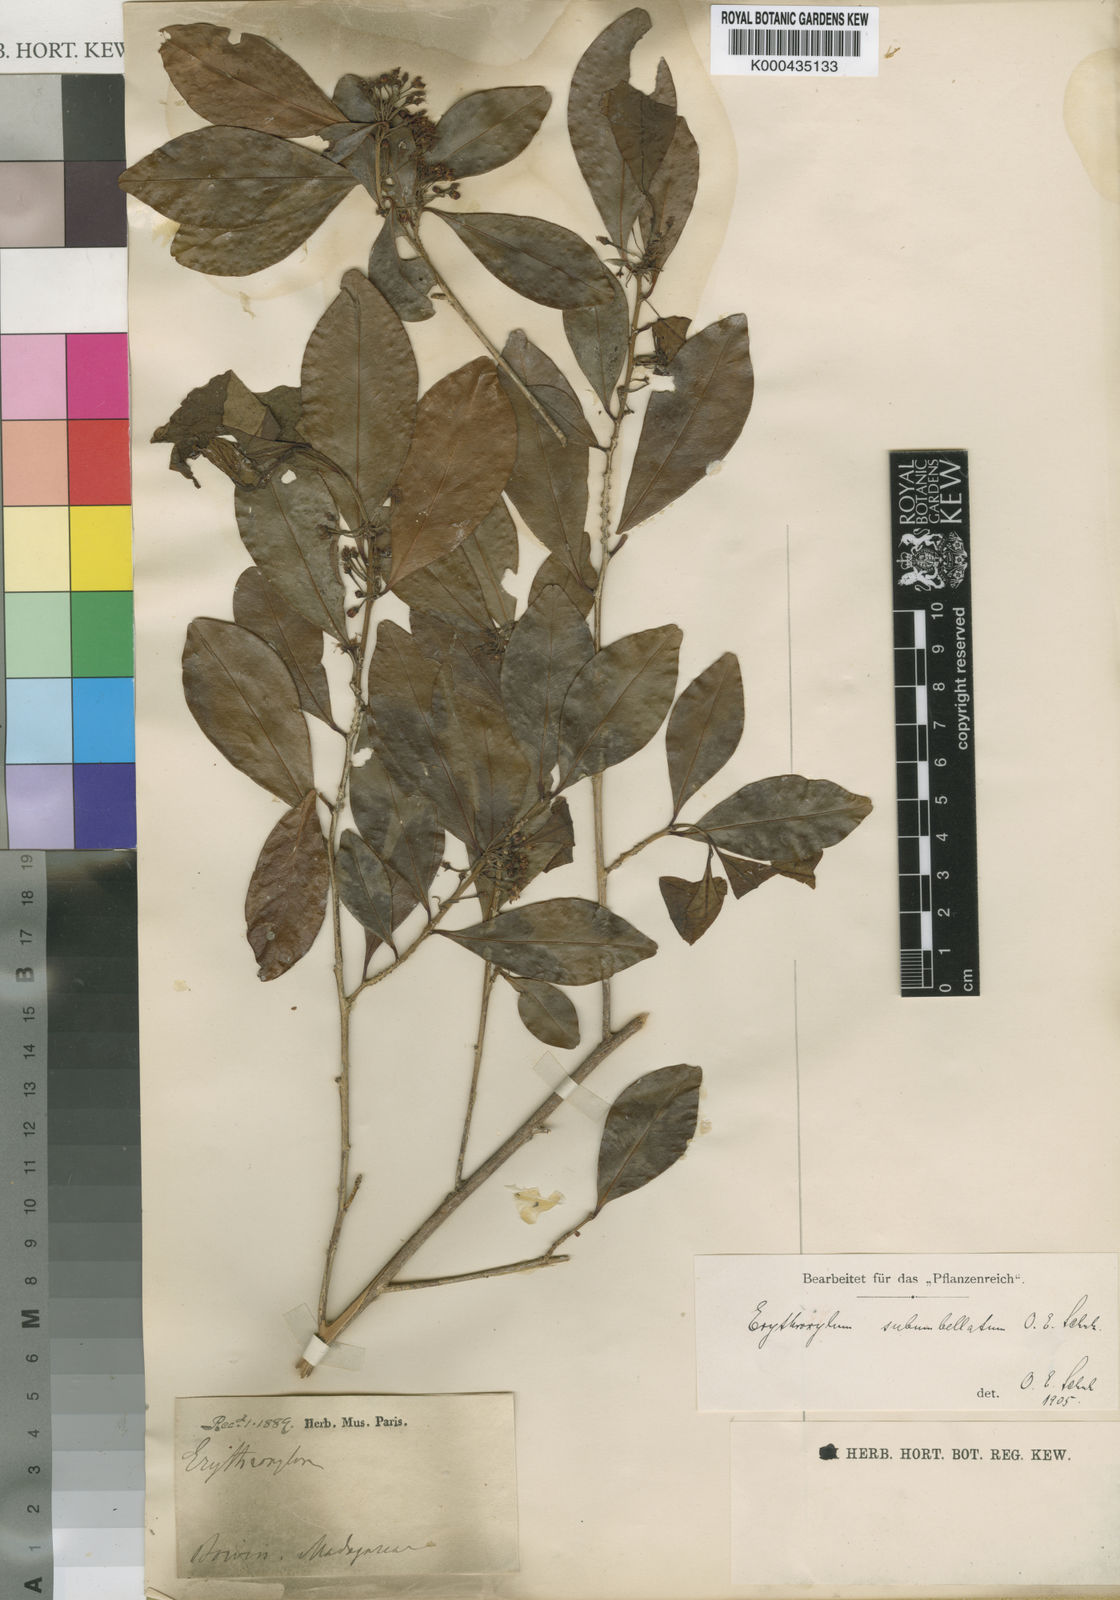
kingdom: Plantae
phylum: Tracheophyta
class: Magnoliopsida
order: Malpighiales
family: Erythroxylaceae
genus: Erythroxylum
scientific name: Erythroxylum lanceum
